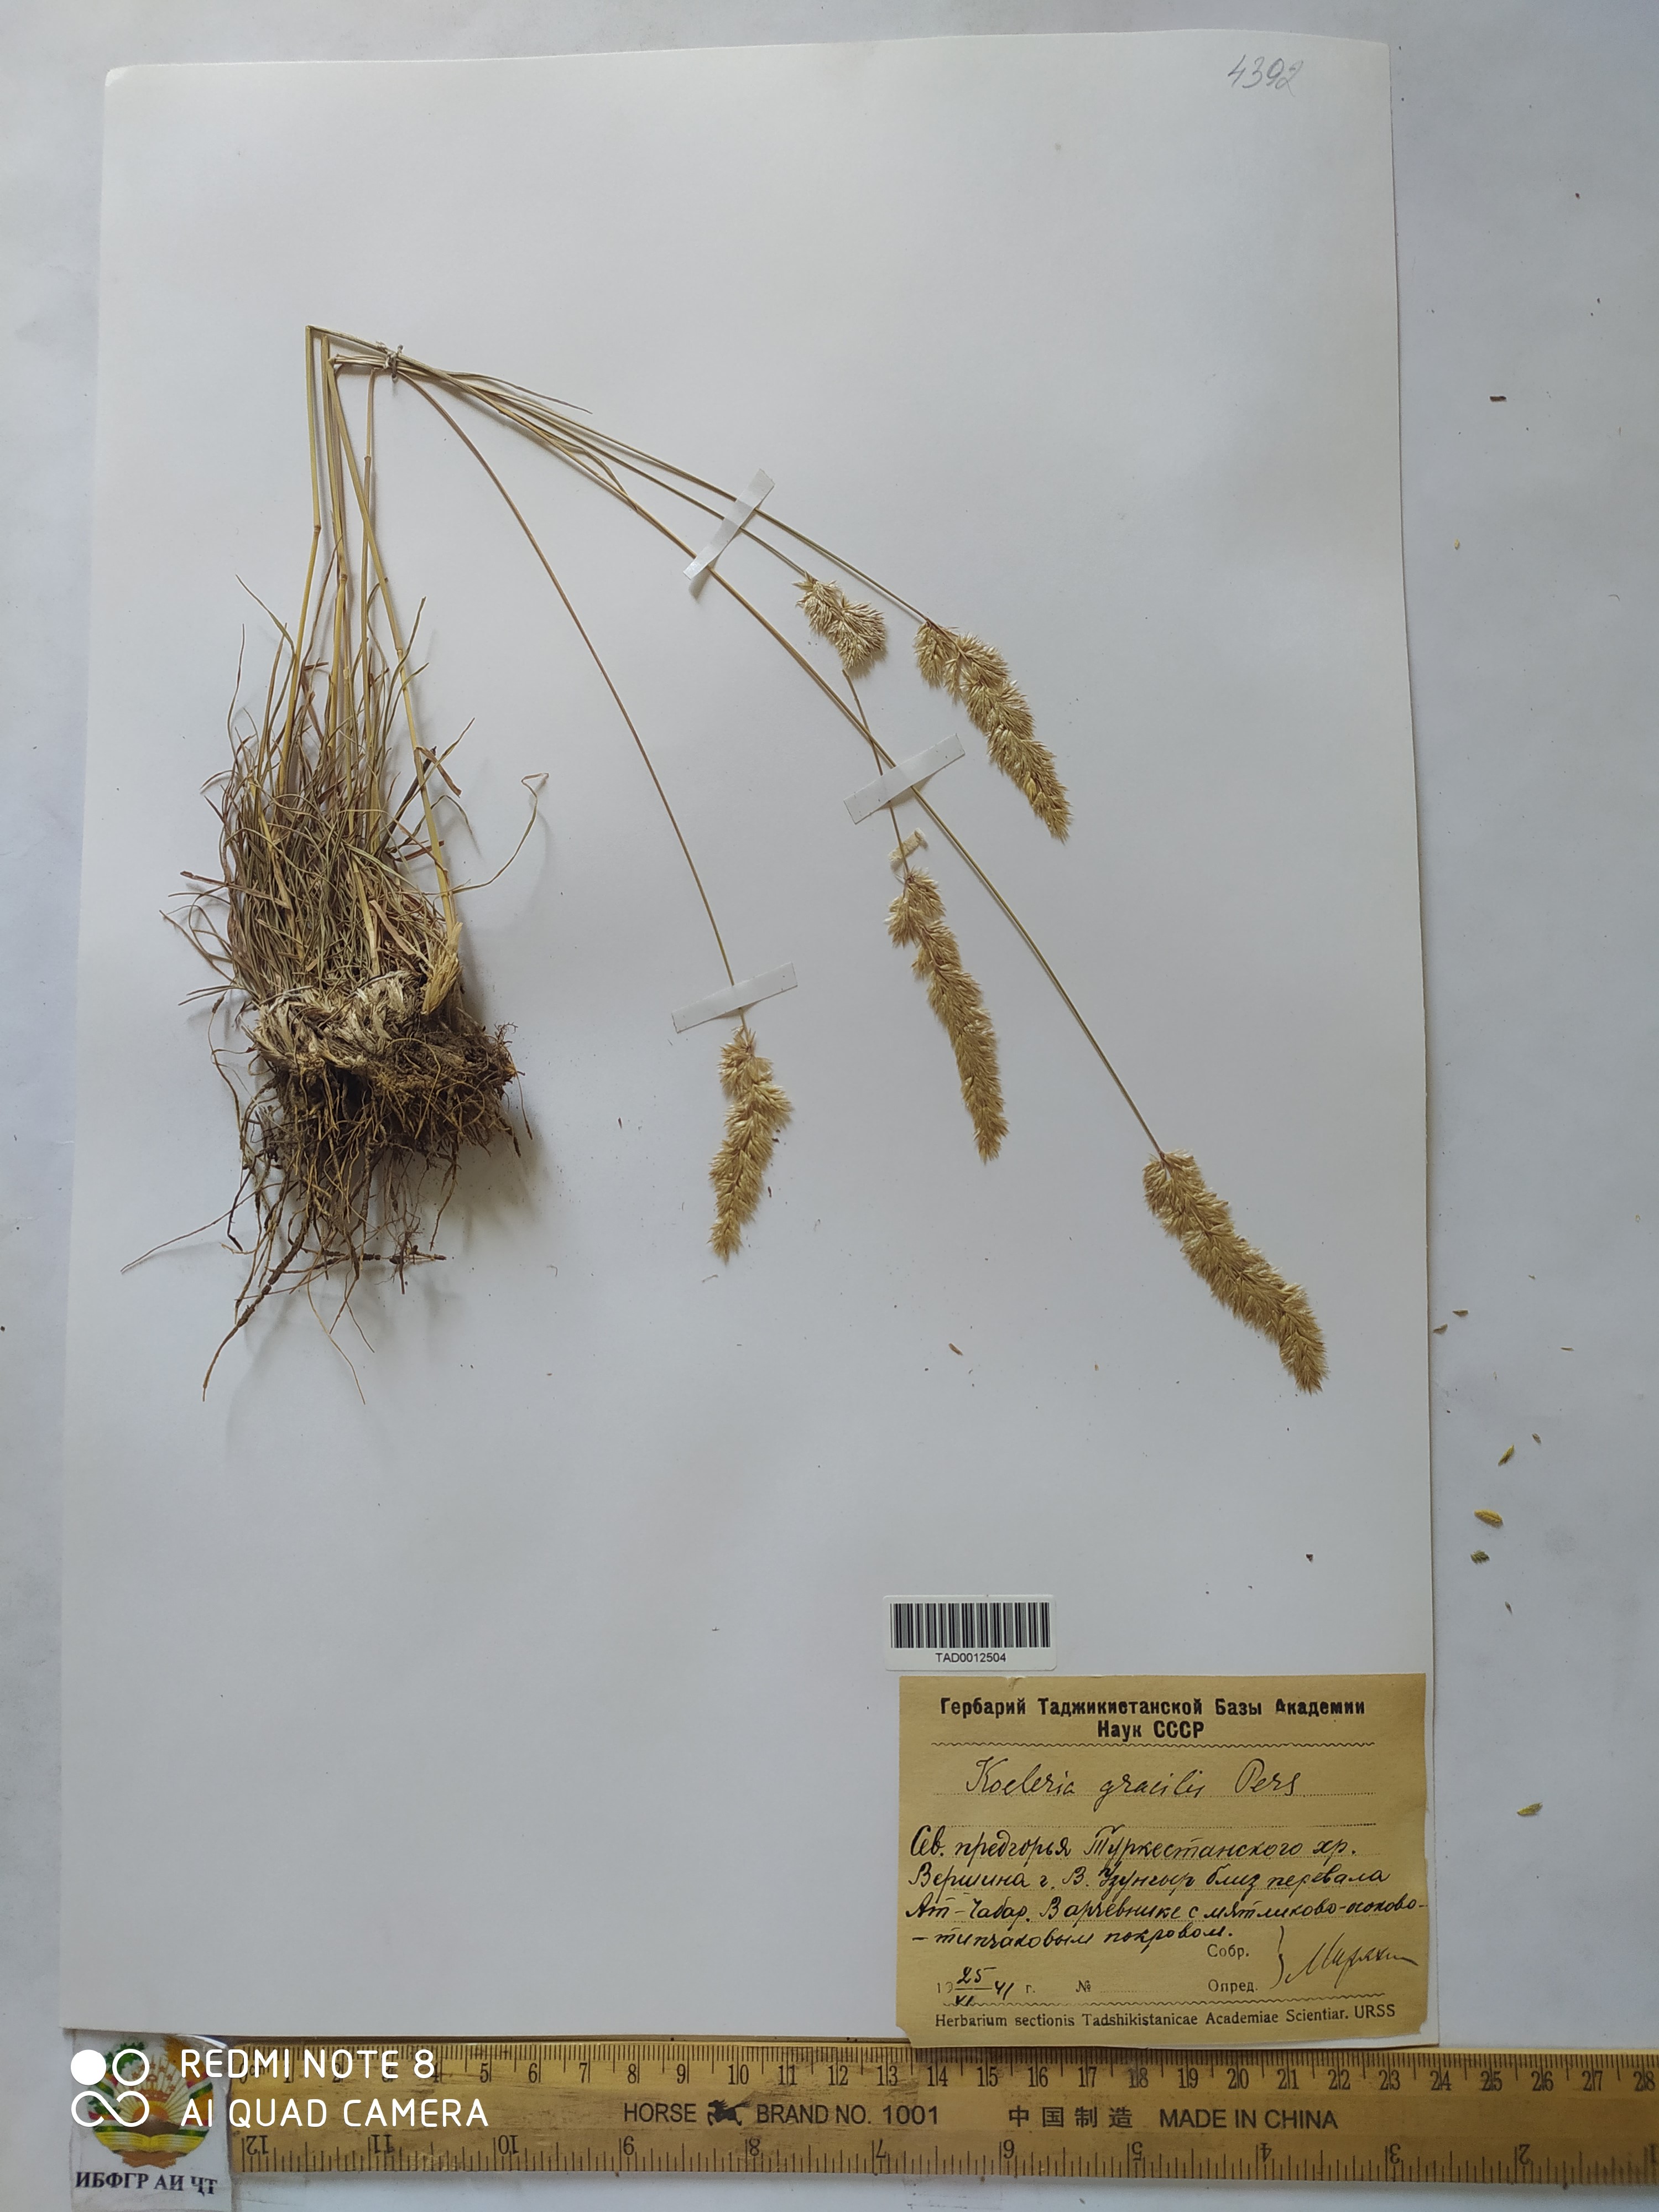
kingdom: Plantae
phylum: Tracheophyta
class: Liliopsida
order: Poales
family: Poaceae
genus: Koeleria
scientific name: Koeleria macrantha
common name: Crested hair-grass
